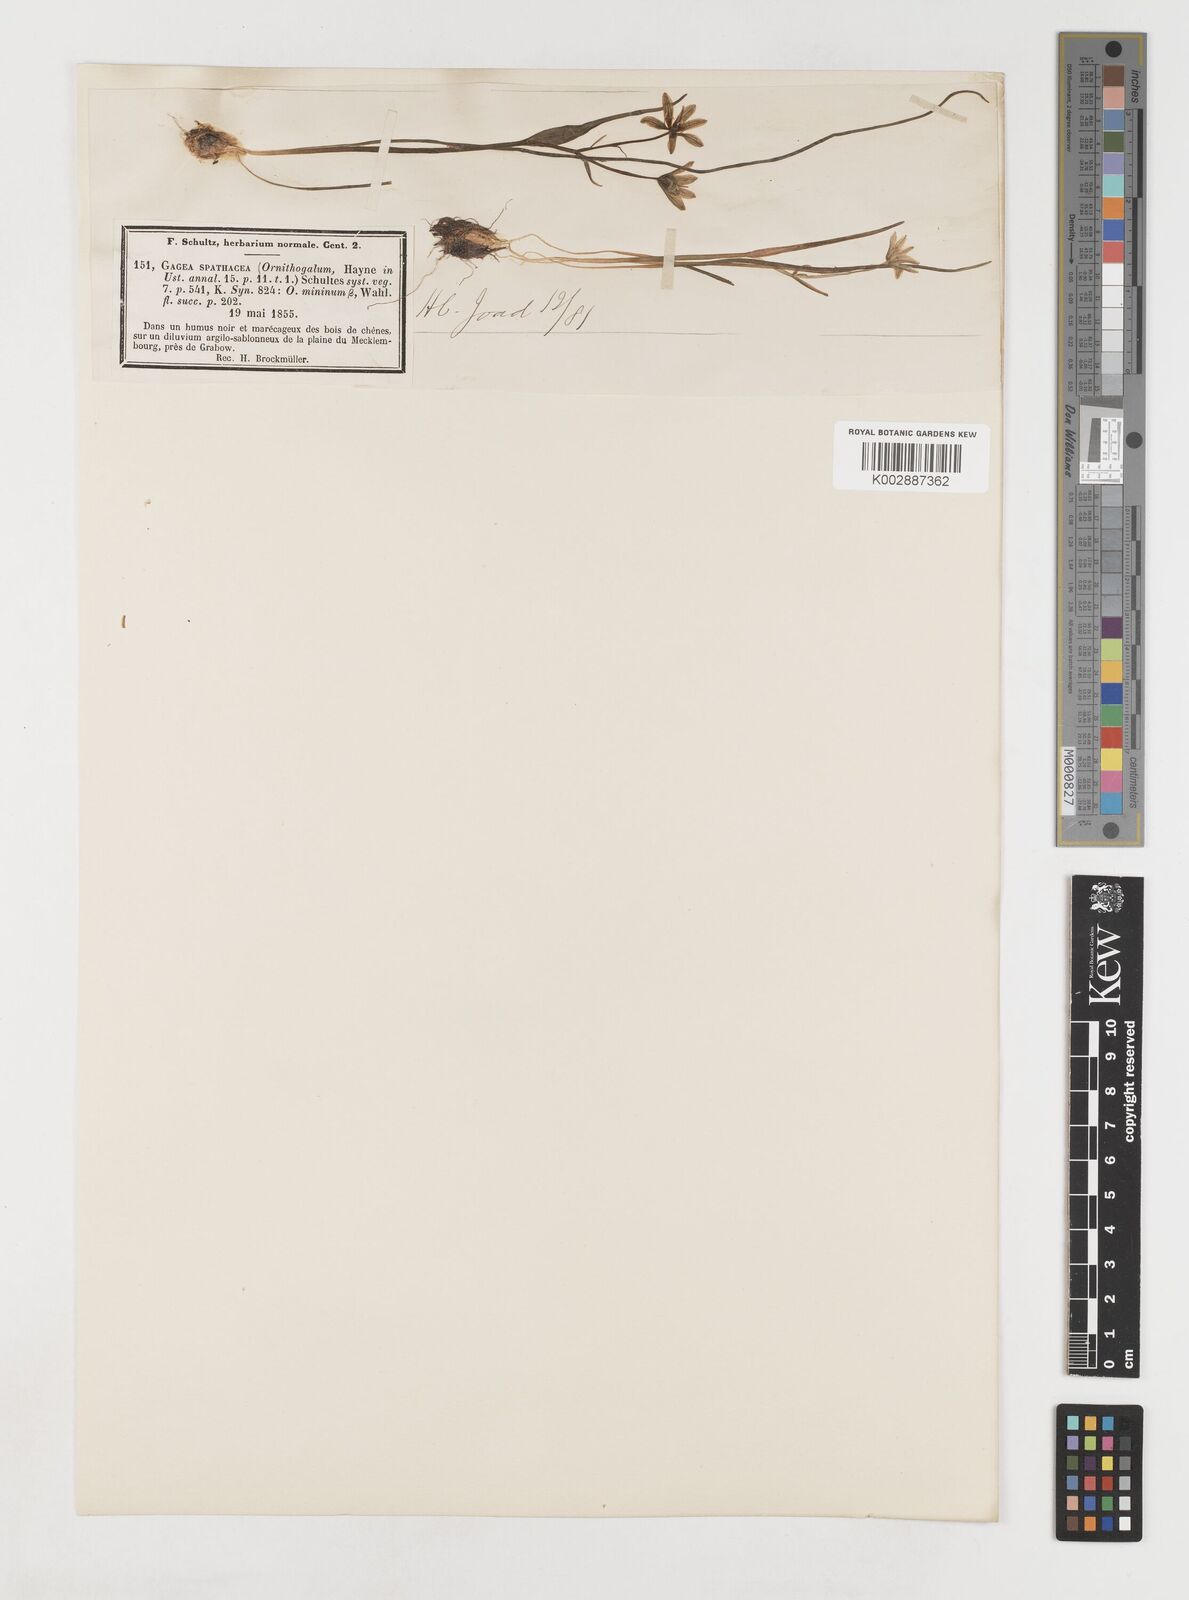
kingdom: Plantae
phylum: Tracheophyta
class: Liliopsida
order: Liliales
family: Liliaceae
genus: Gagea
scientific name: Gagea spathacea
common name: Belgian gagea
